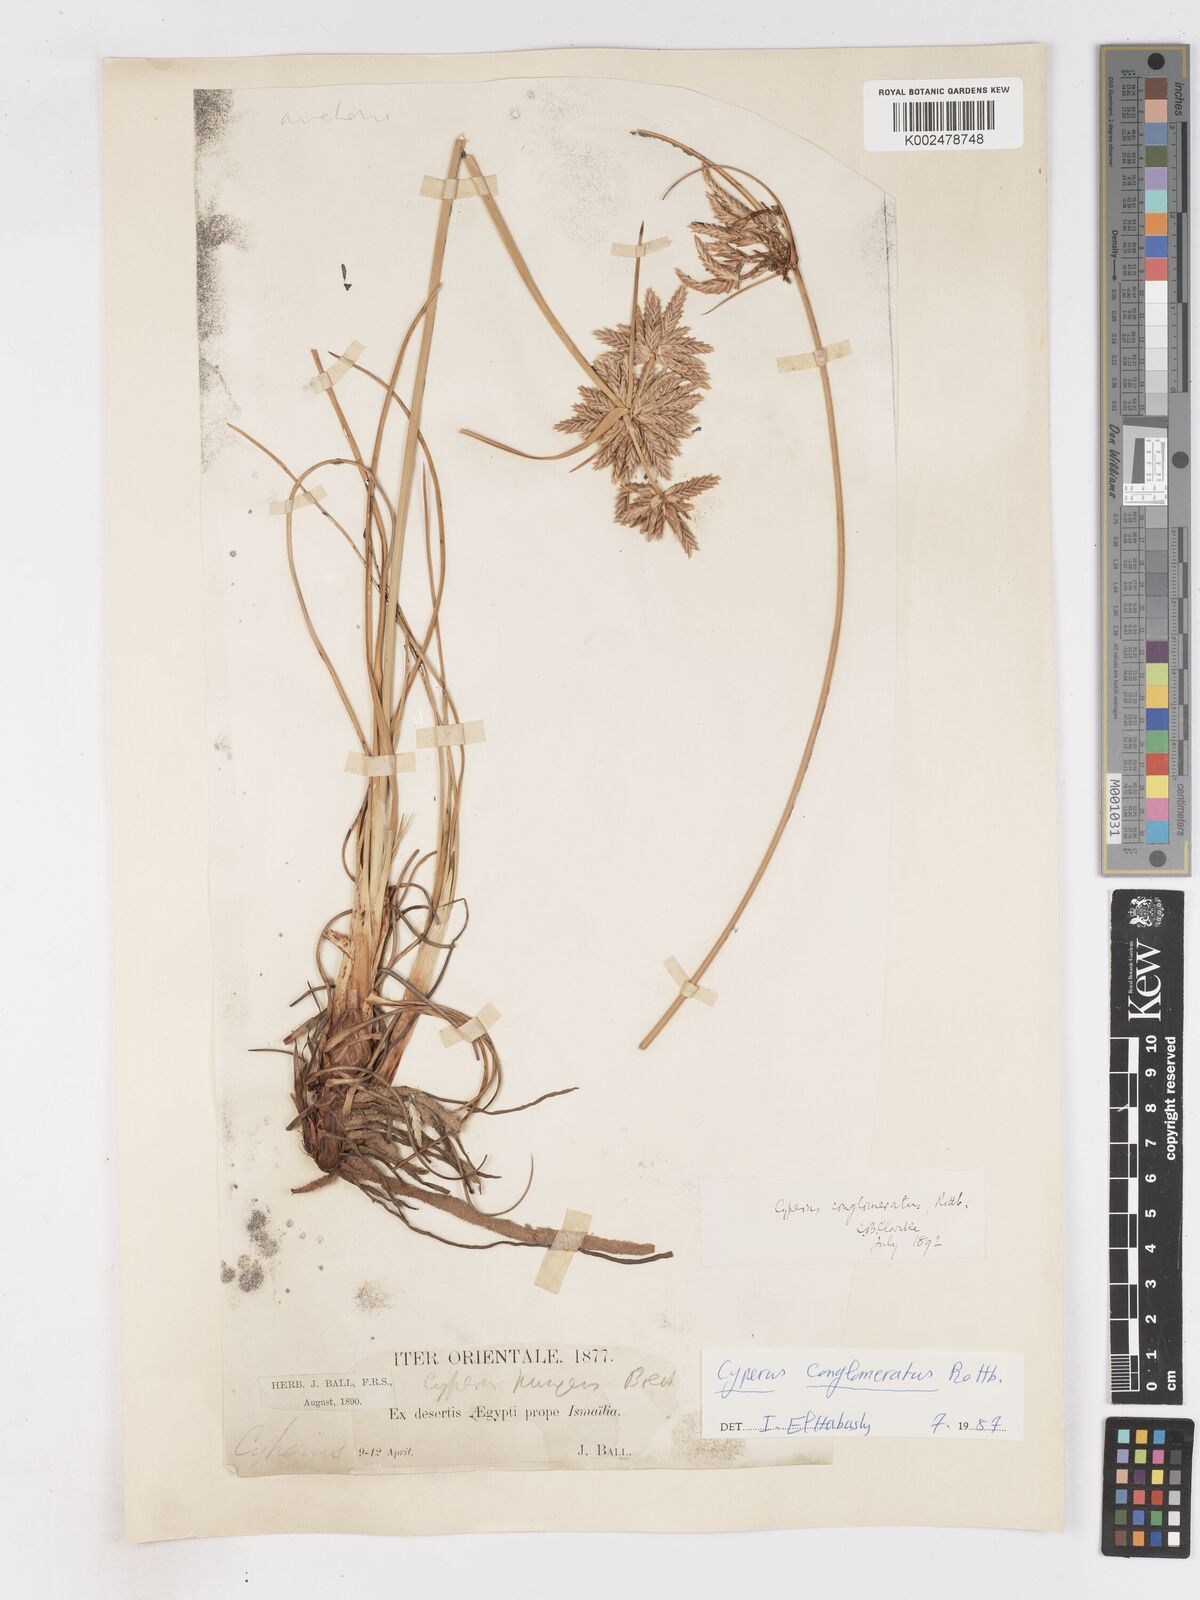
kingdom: Plantae
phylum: Tracheophyta
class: Liliopsida
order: Poales
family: Cyperaceae
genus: Cyperus
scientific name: Cyperus conglomeratus
